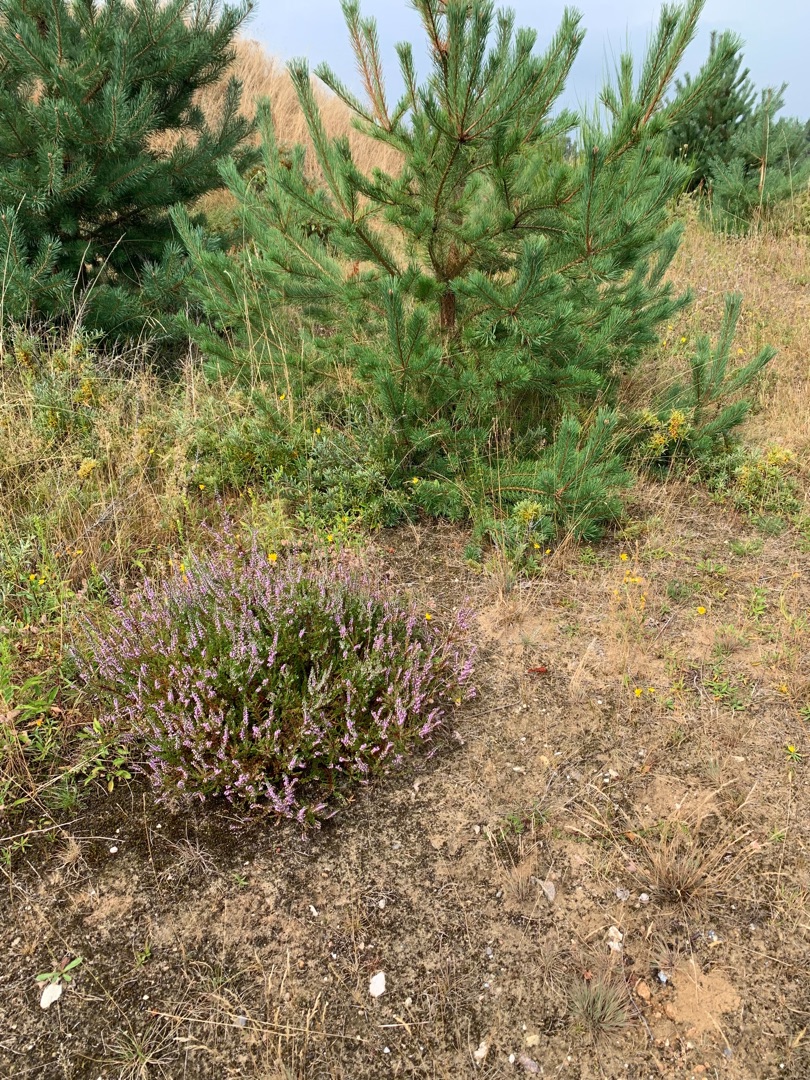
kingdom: Plantae
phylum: Tracheophyta
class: Magnoliopsida
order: Lamiales
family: Lamiaceae
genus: Origanum
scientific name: Origanum vulgare
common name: Merian
